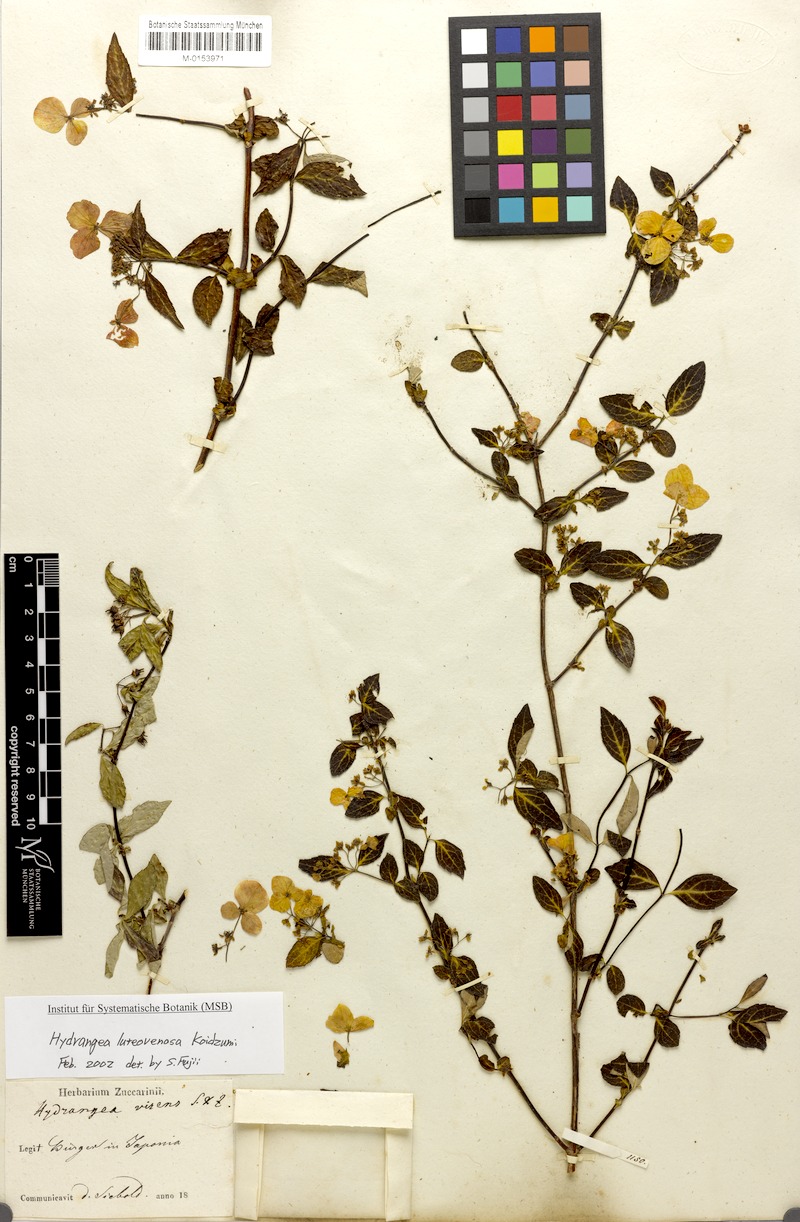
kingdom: Plantae
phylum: Tracheophyta
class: Magnoliopsida
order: Cornales
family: Hydrangeaceae
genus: Hydrangea
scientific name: Hydrangea luteovenosa
